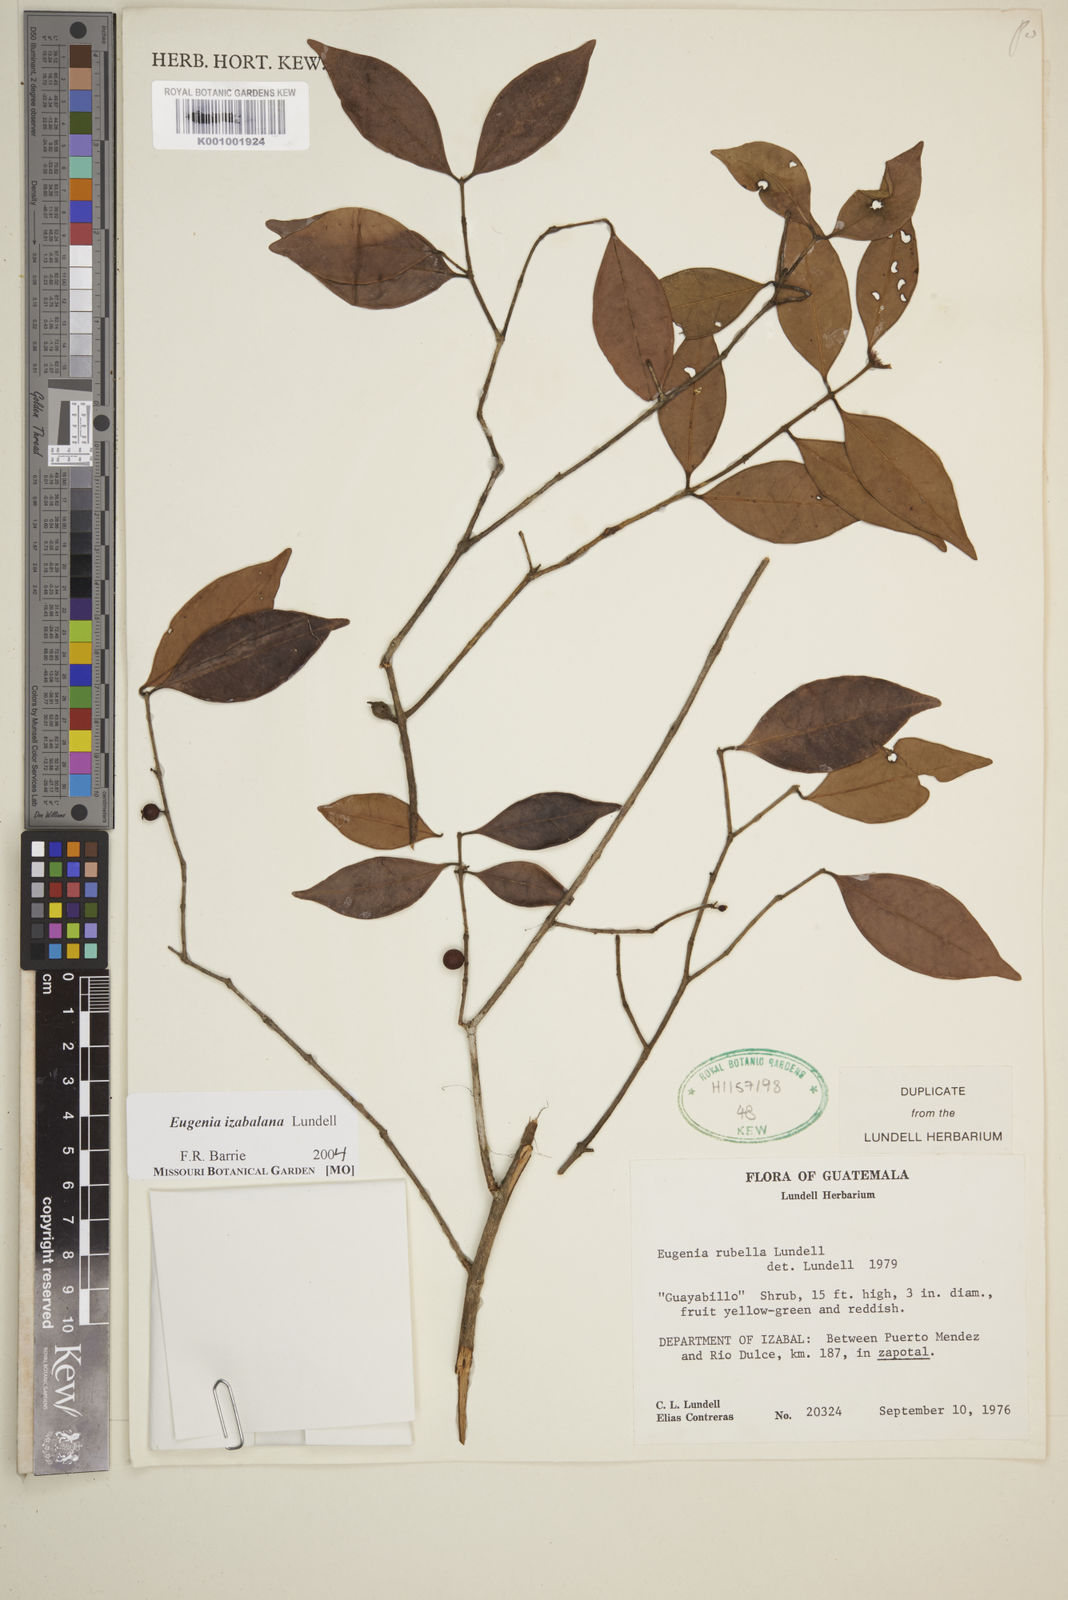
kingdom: Plantae
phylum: Tracheophyta
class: Magnoliopsida
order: Myrtales
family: Myrtaceae
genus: Eugenia
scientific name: Eugenia izabalana
